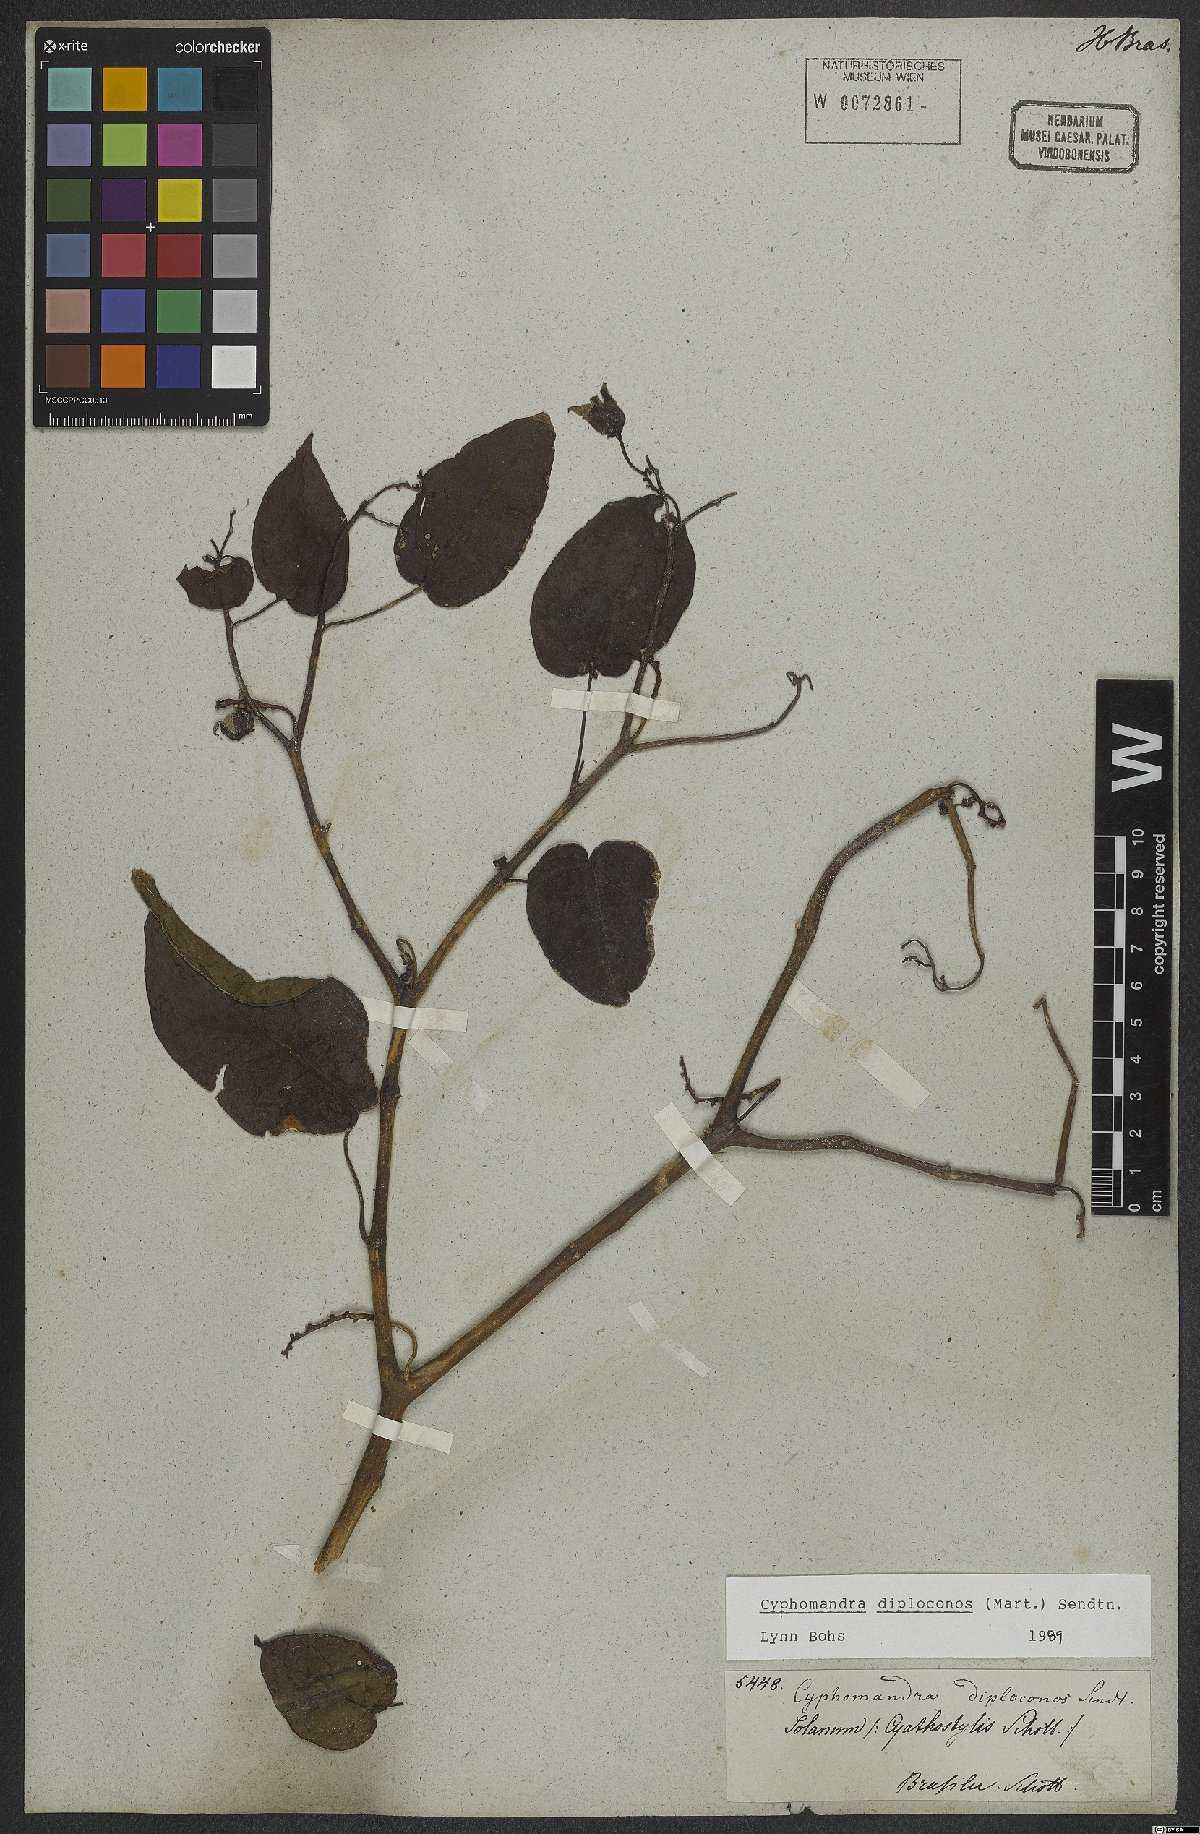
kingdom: Plantae
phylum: Tracheophyta
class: Magnoliopsida
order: Solanales
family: Solanaceae
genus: Solanum
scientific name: Solanum diploconos
